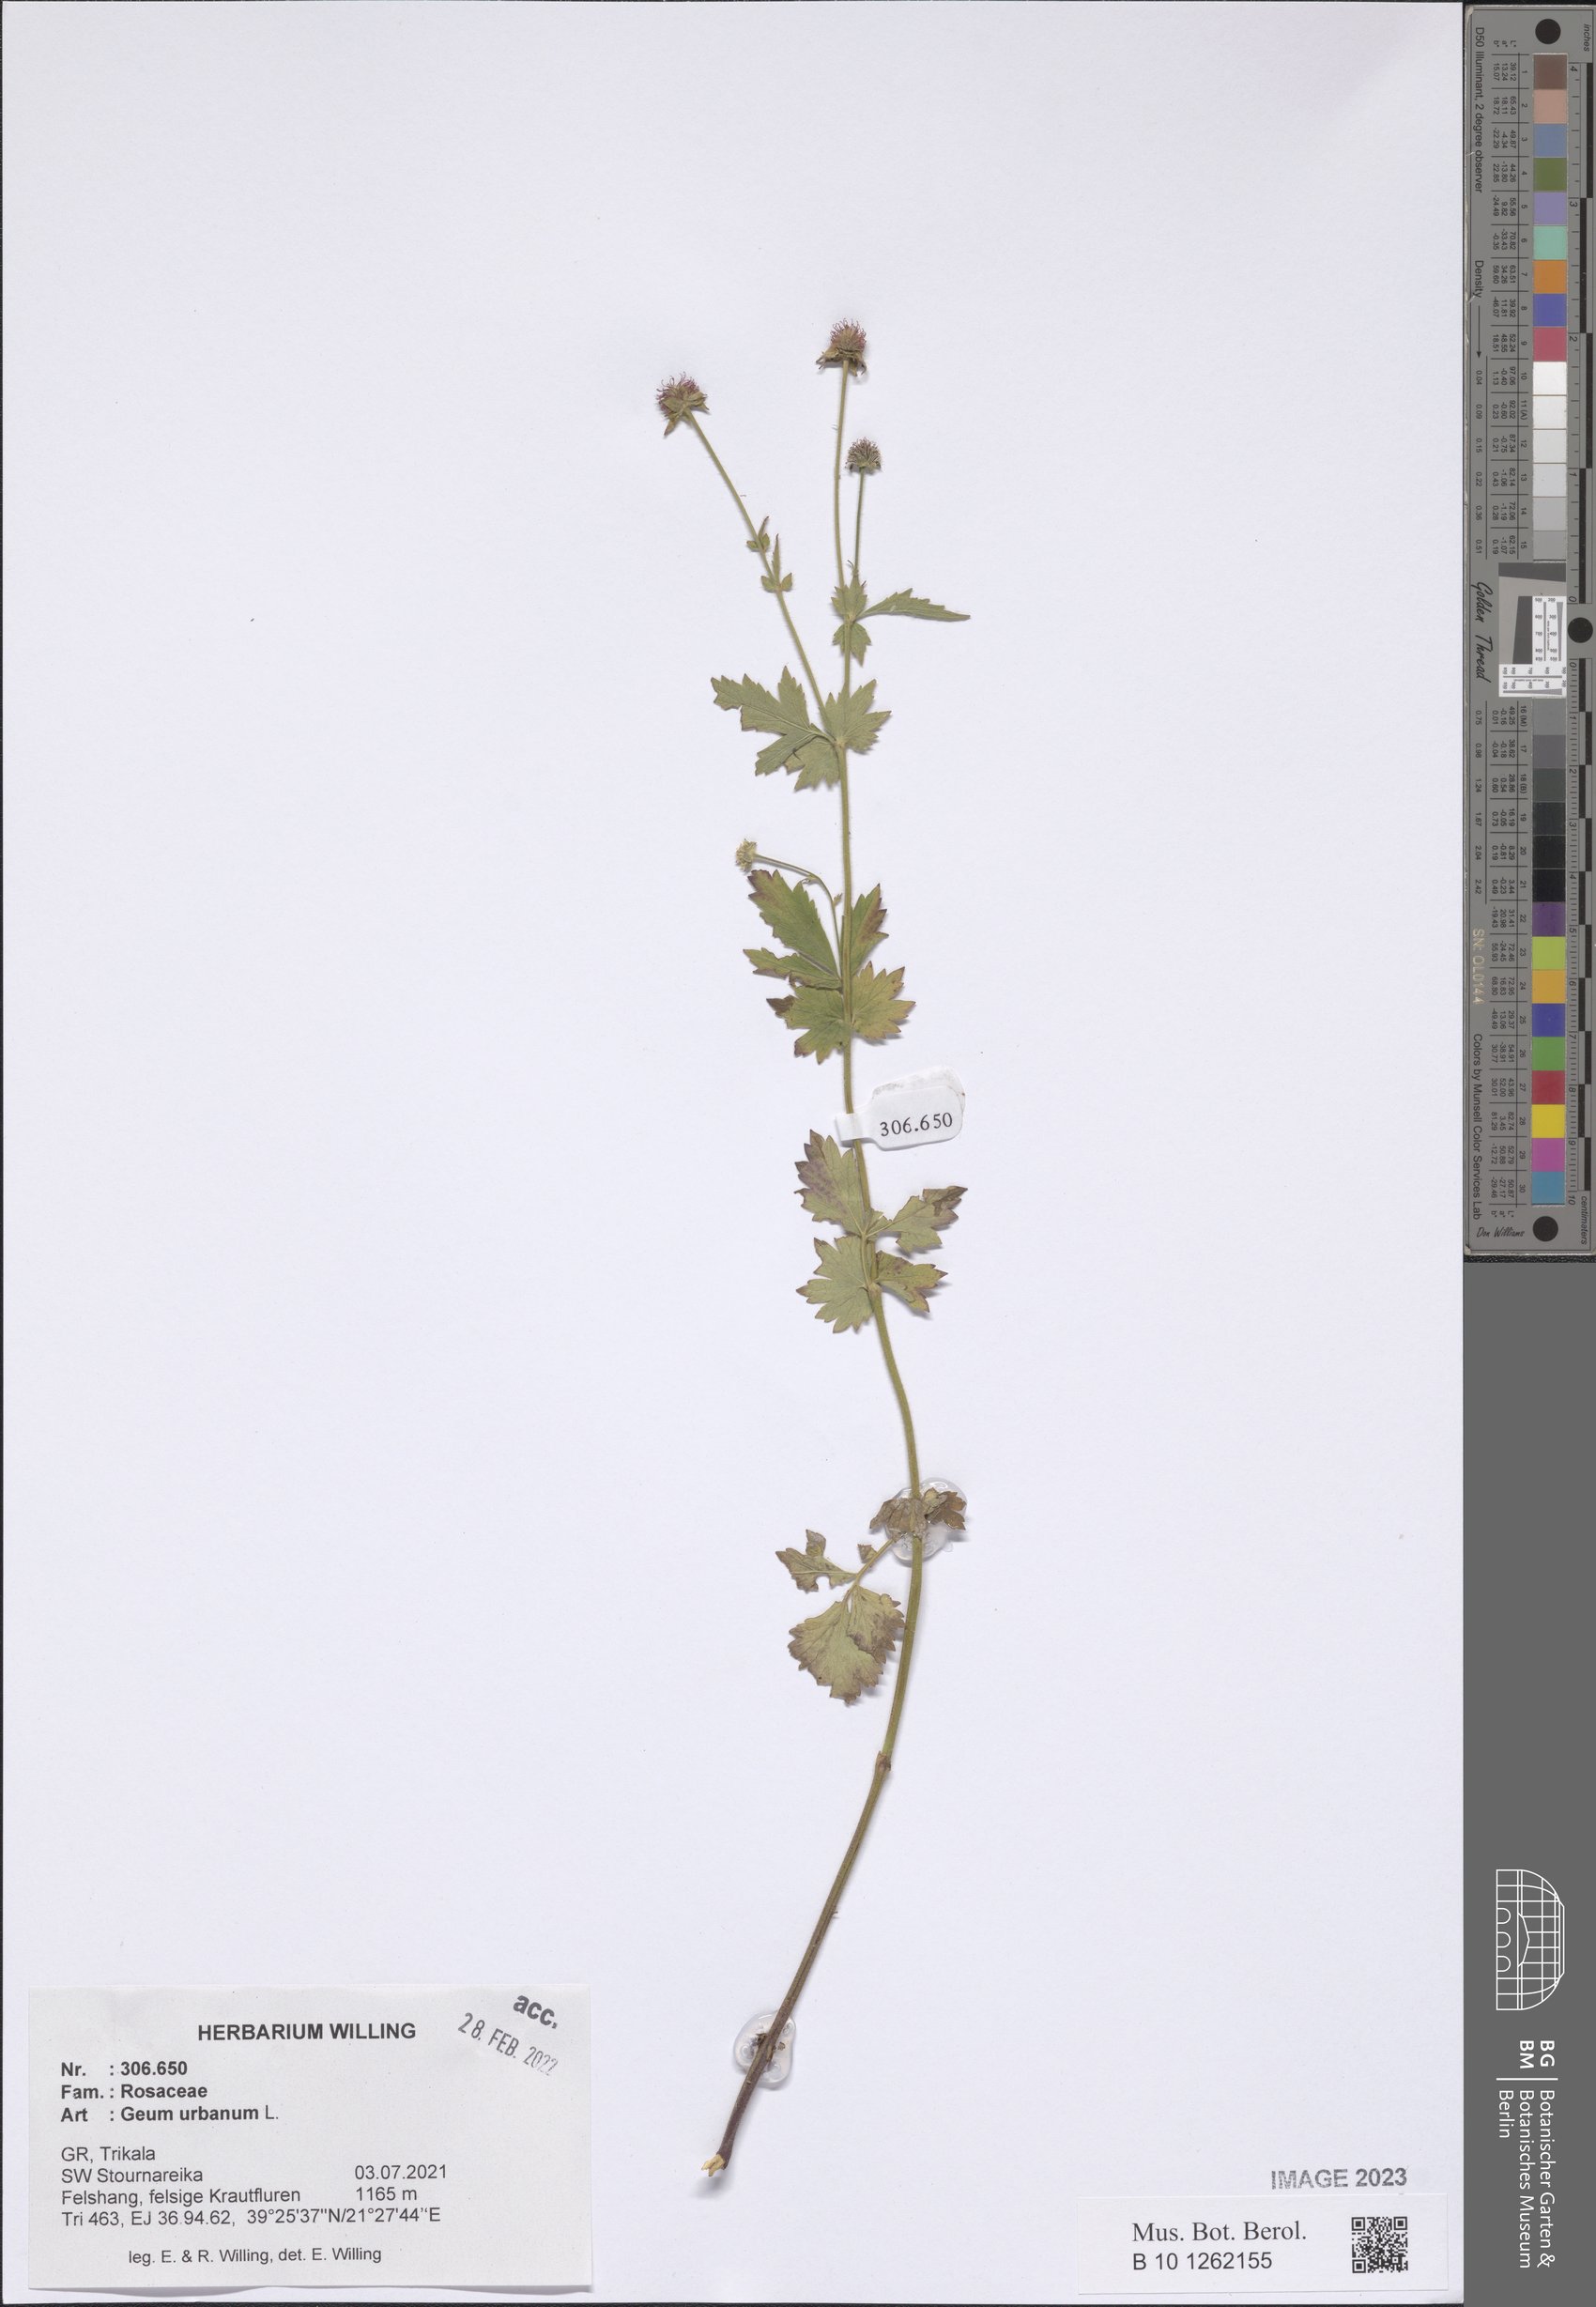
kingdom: Plantae
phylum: Tracheophyta
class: Magnoliopsida
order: Rosales
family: Rosaceae
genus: Geum
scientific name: Geum urbanum
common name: Wood avens
